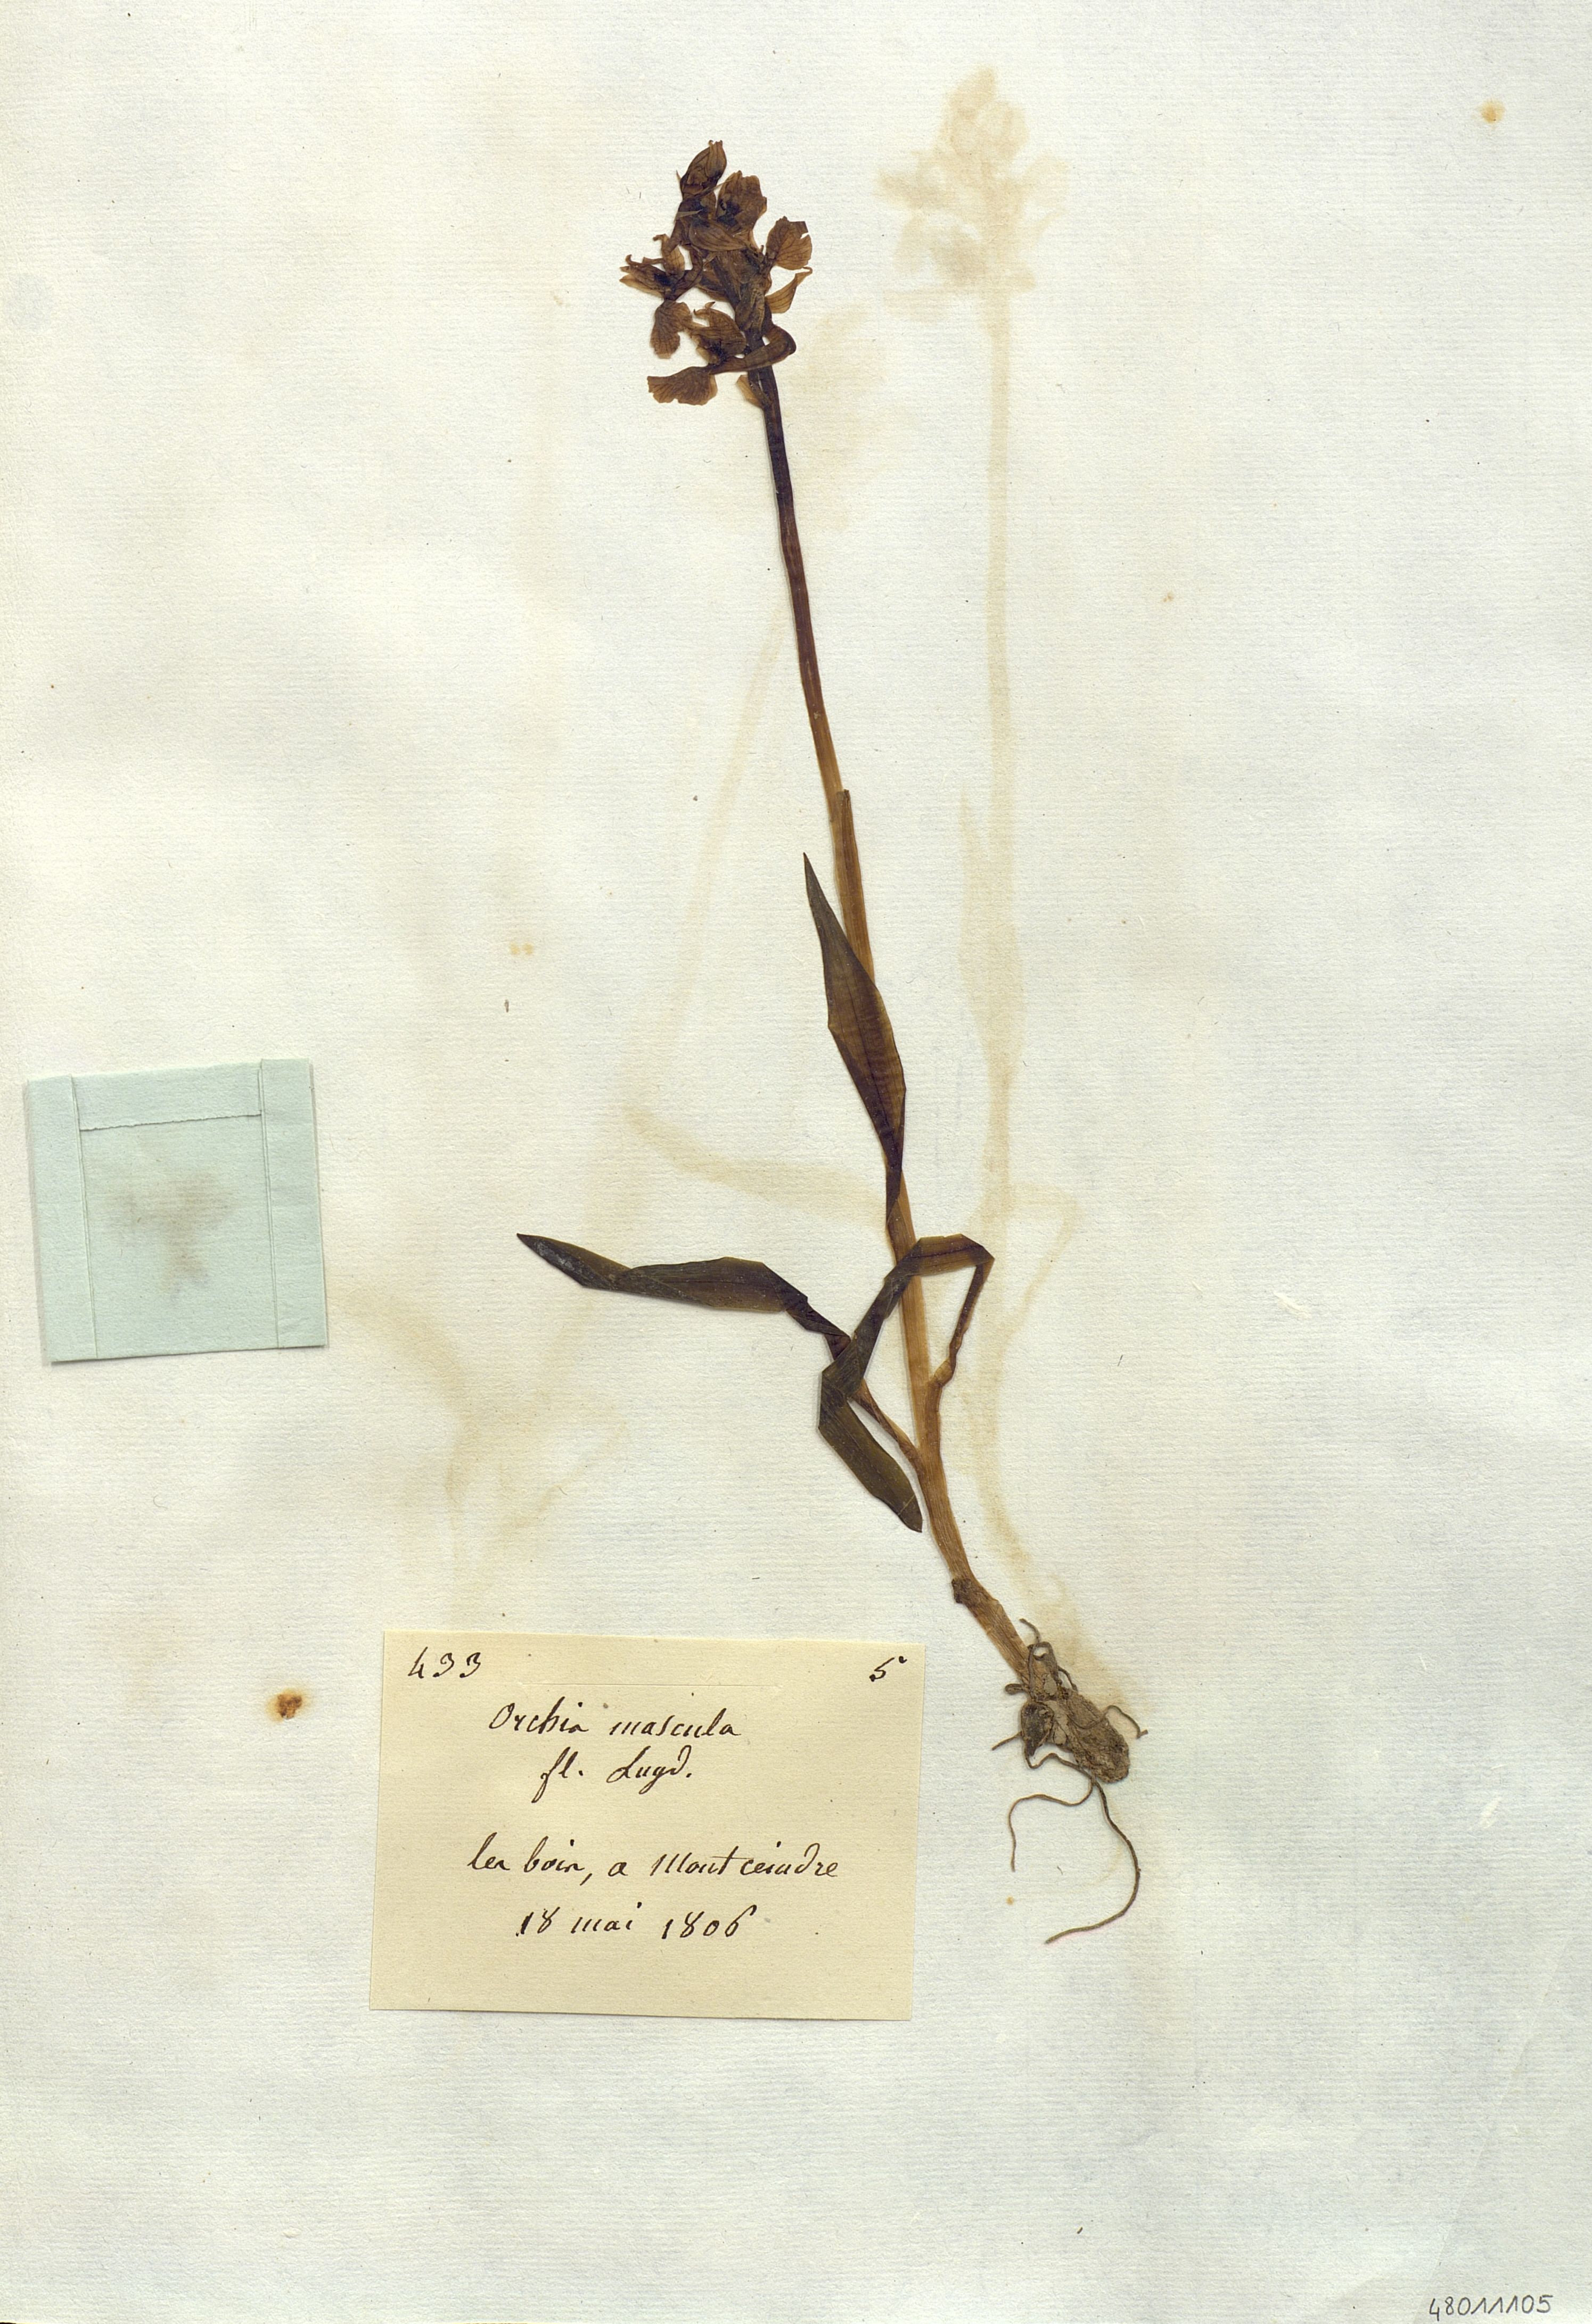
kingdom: Plantae
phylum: Tracheophyta
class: Liliopsida
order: Asparagales
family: Orchidaceae
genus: Orchis
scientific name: Orchis mascula
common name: Early-purple orchid
